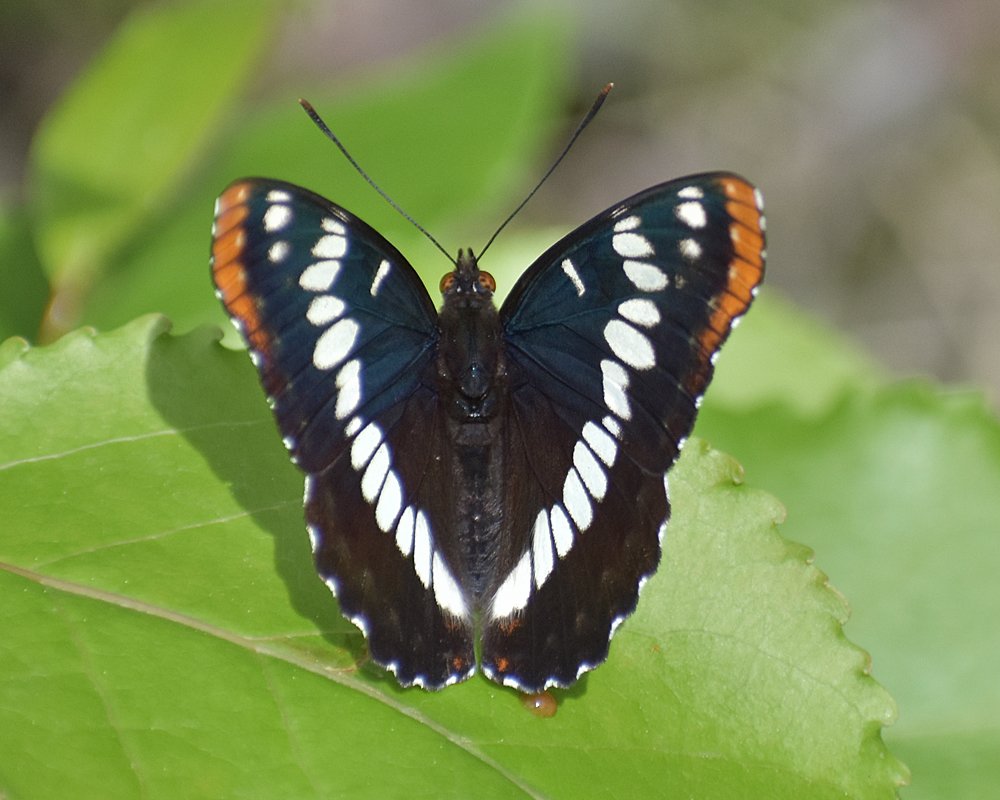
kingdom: Animalia
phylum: Arthropoda
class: Insecta
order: Lepidoptera
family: Nymphalidae
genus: Limenitis
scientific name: Limenitis lorquini
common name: Lorquin's Admiral
